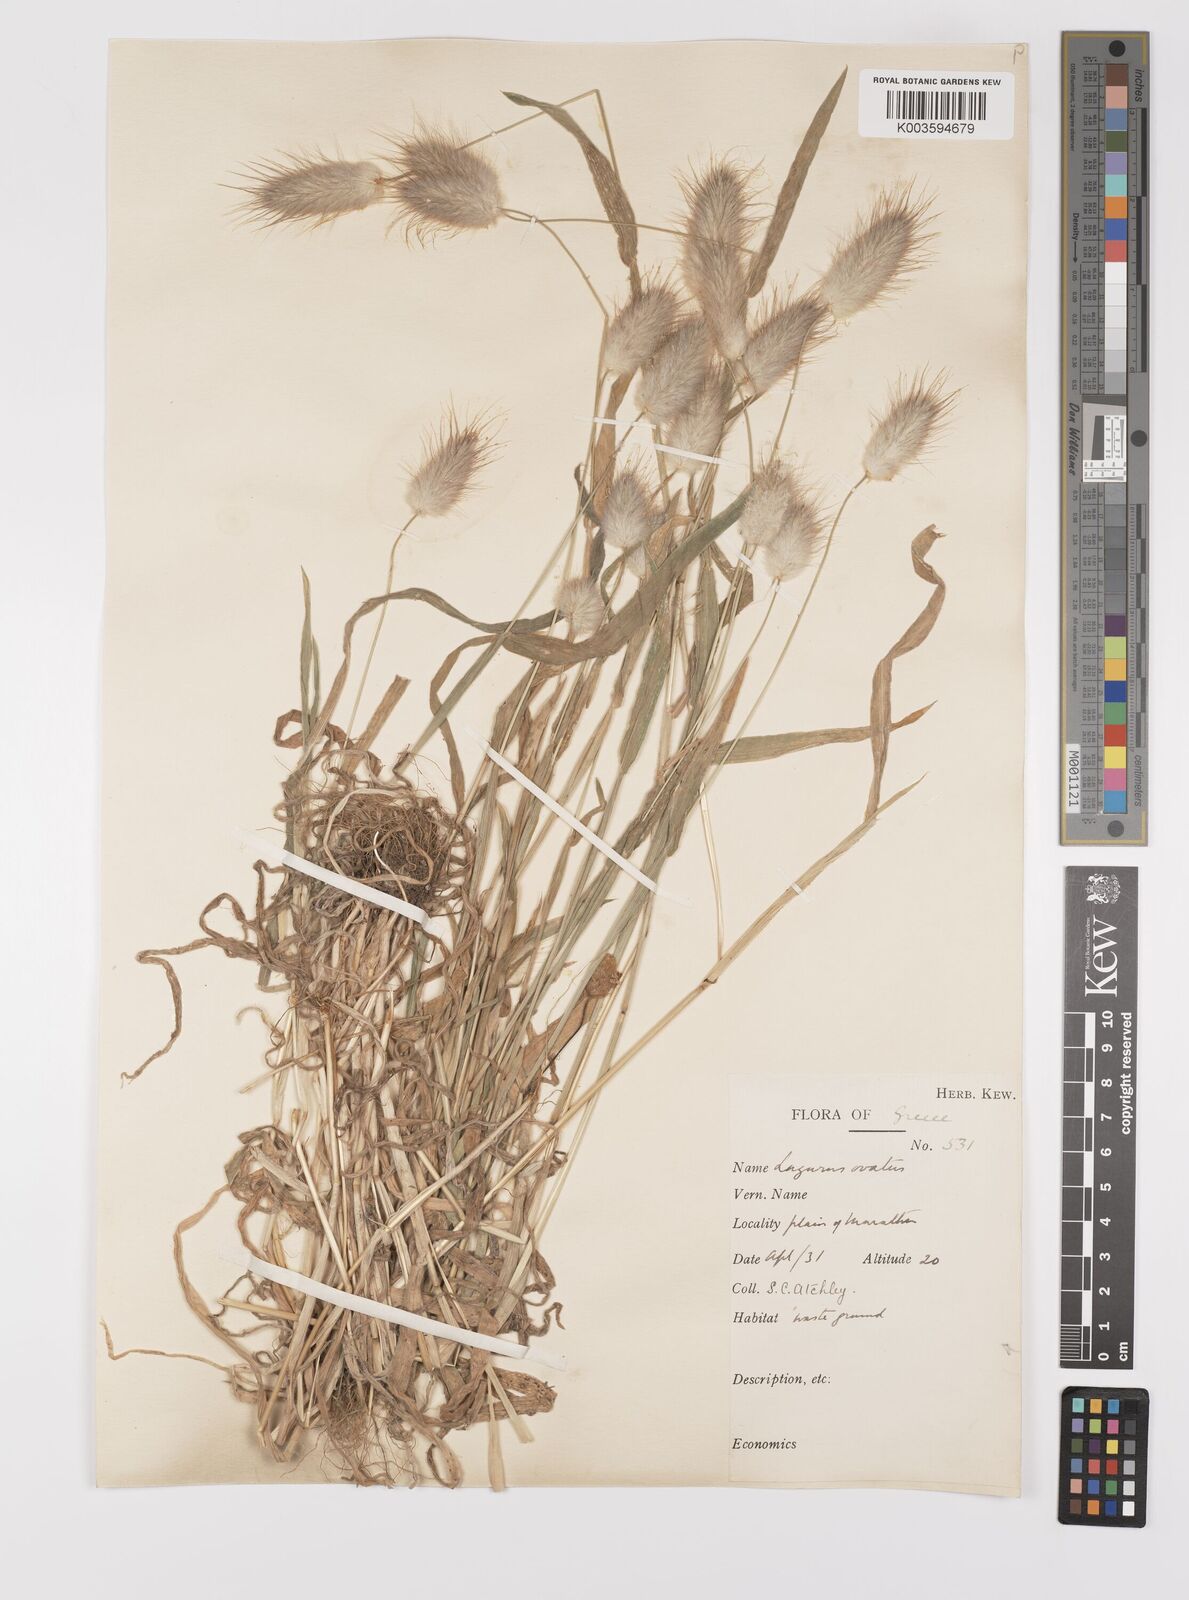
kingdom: Plantae
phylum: Tracheophyta
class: Liliopsida
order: Poales
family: Poaceae
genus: Lagurus
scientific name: Lagurus ovatus
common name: Hare's-tail
